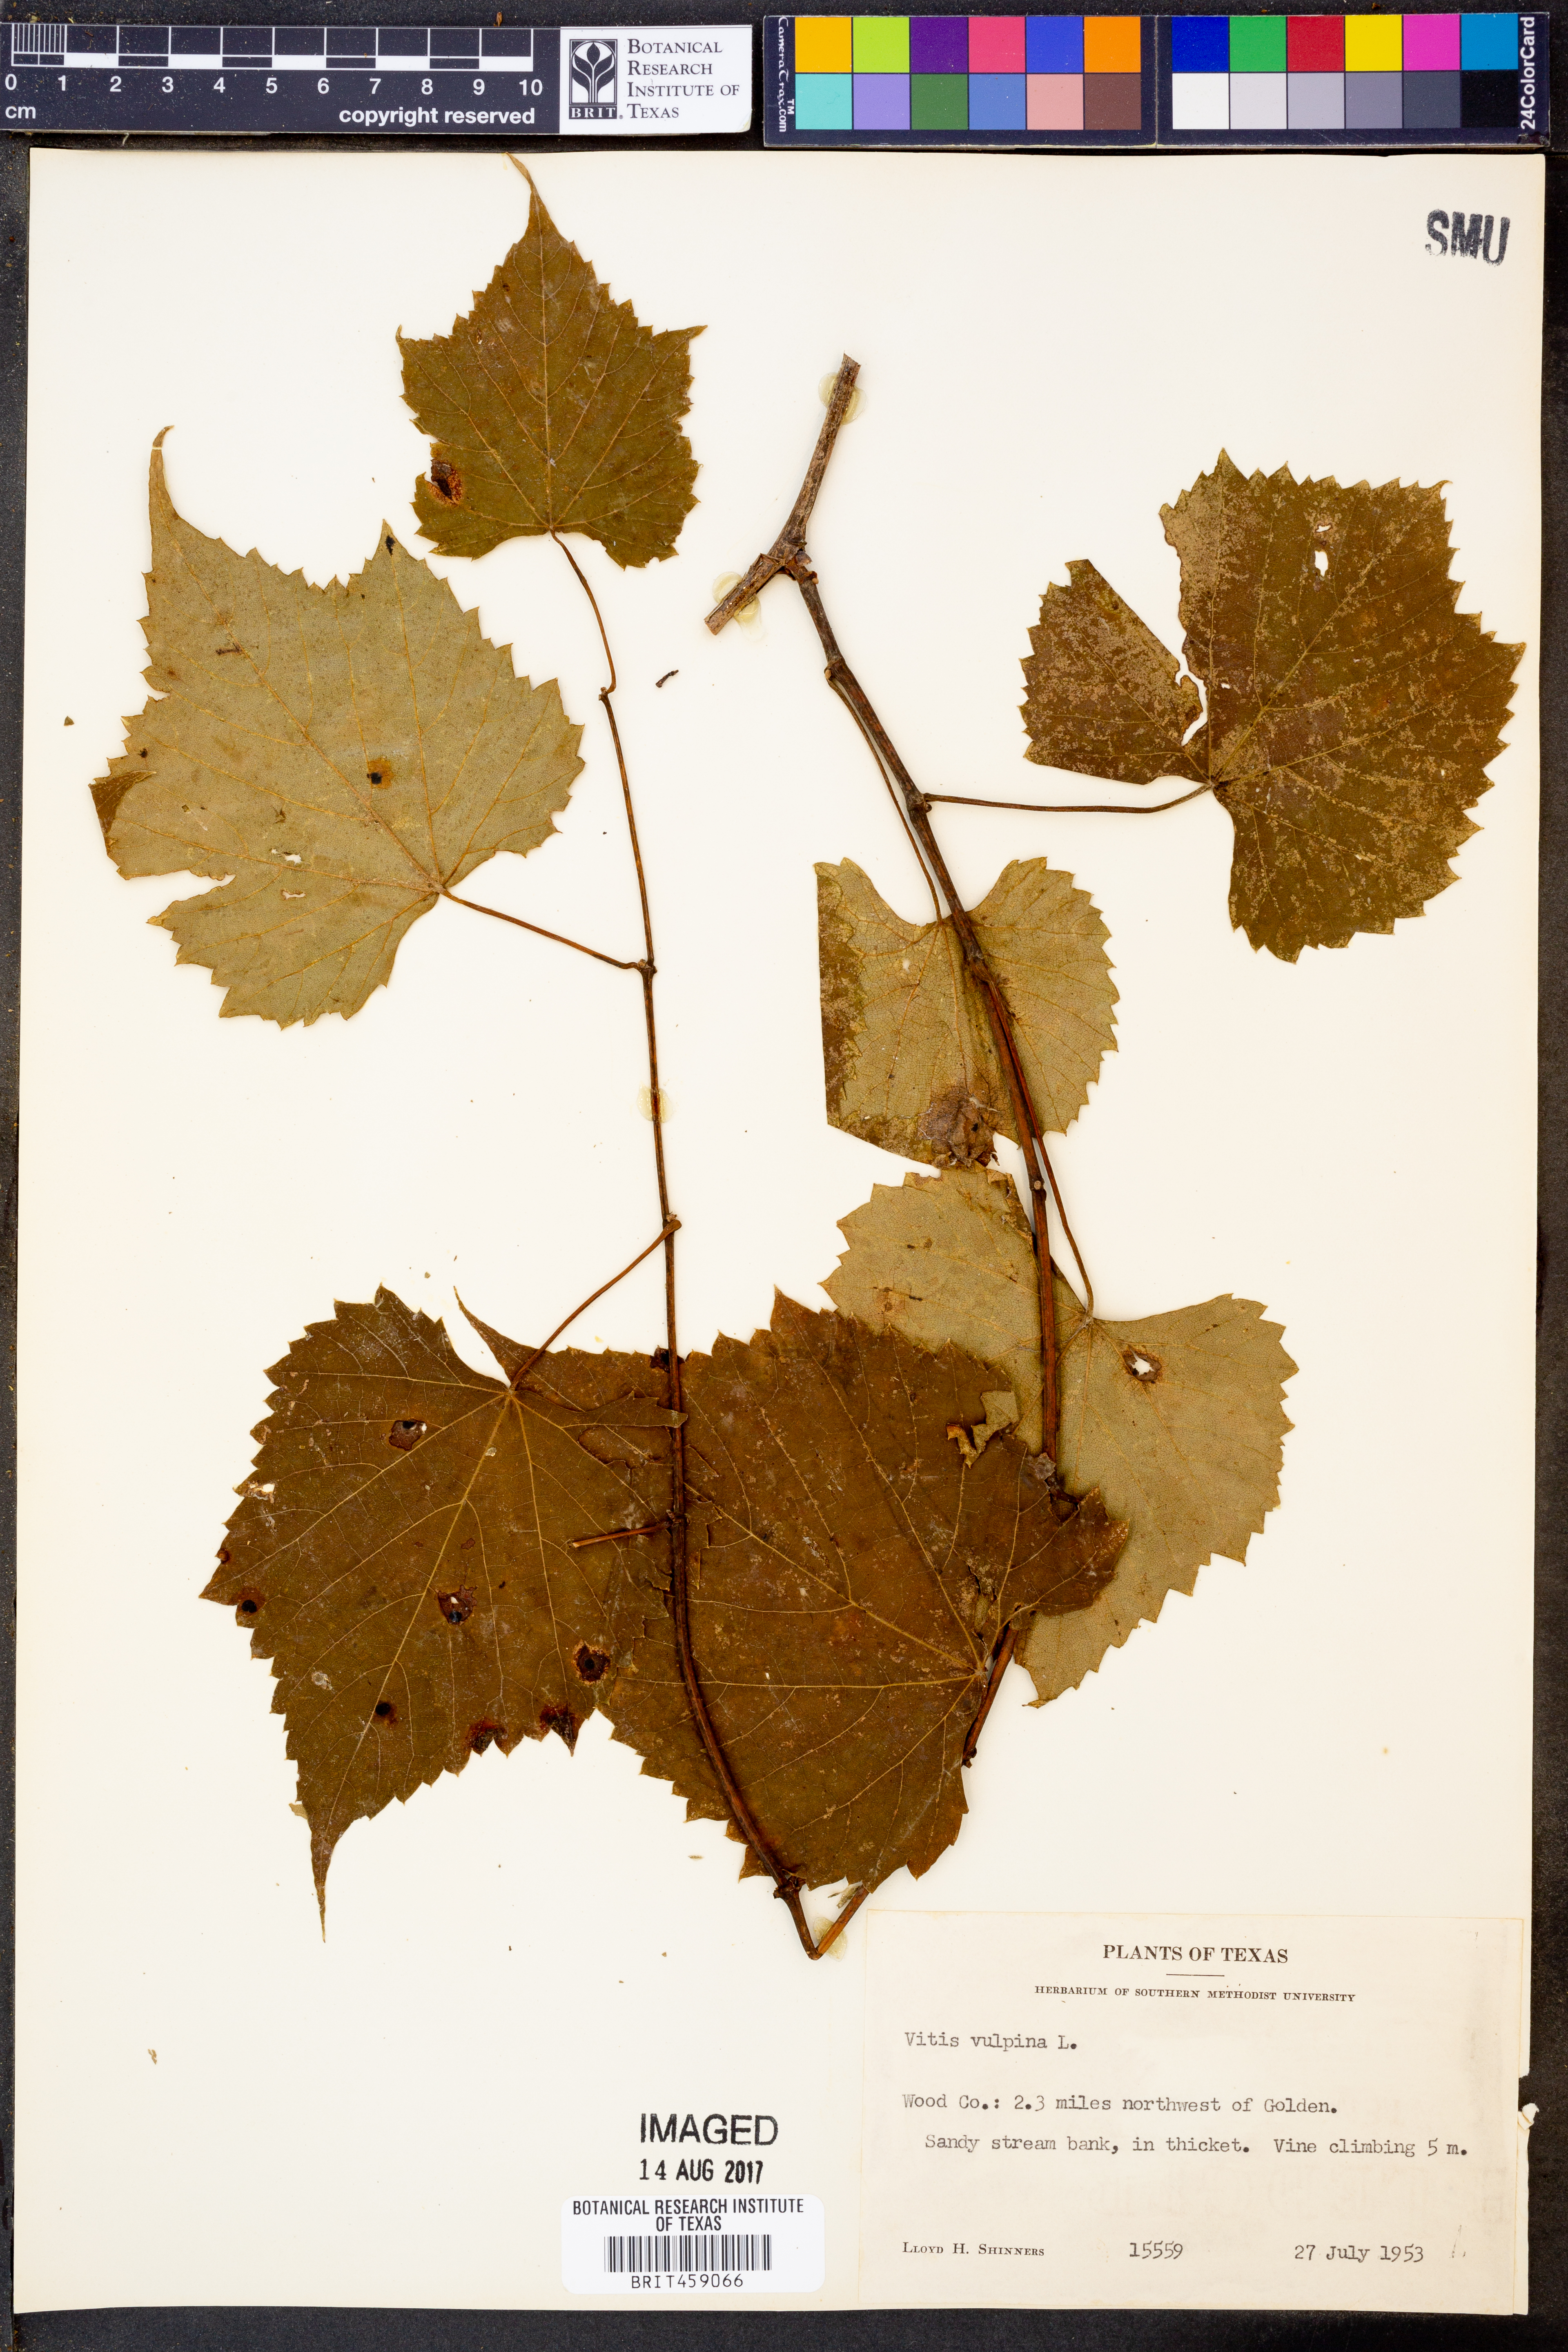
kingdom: Plantae
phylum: Tracheophyta
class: Magnoliopsida
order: Vitales
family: Vitaceae
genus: Vitis
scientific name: Vitis vulpina
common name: Frost grape
